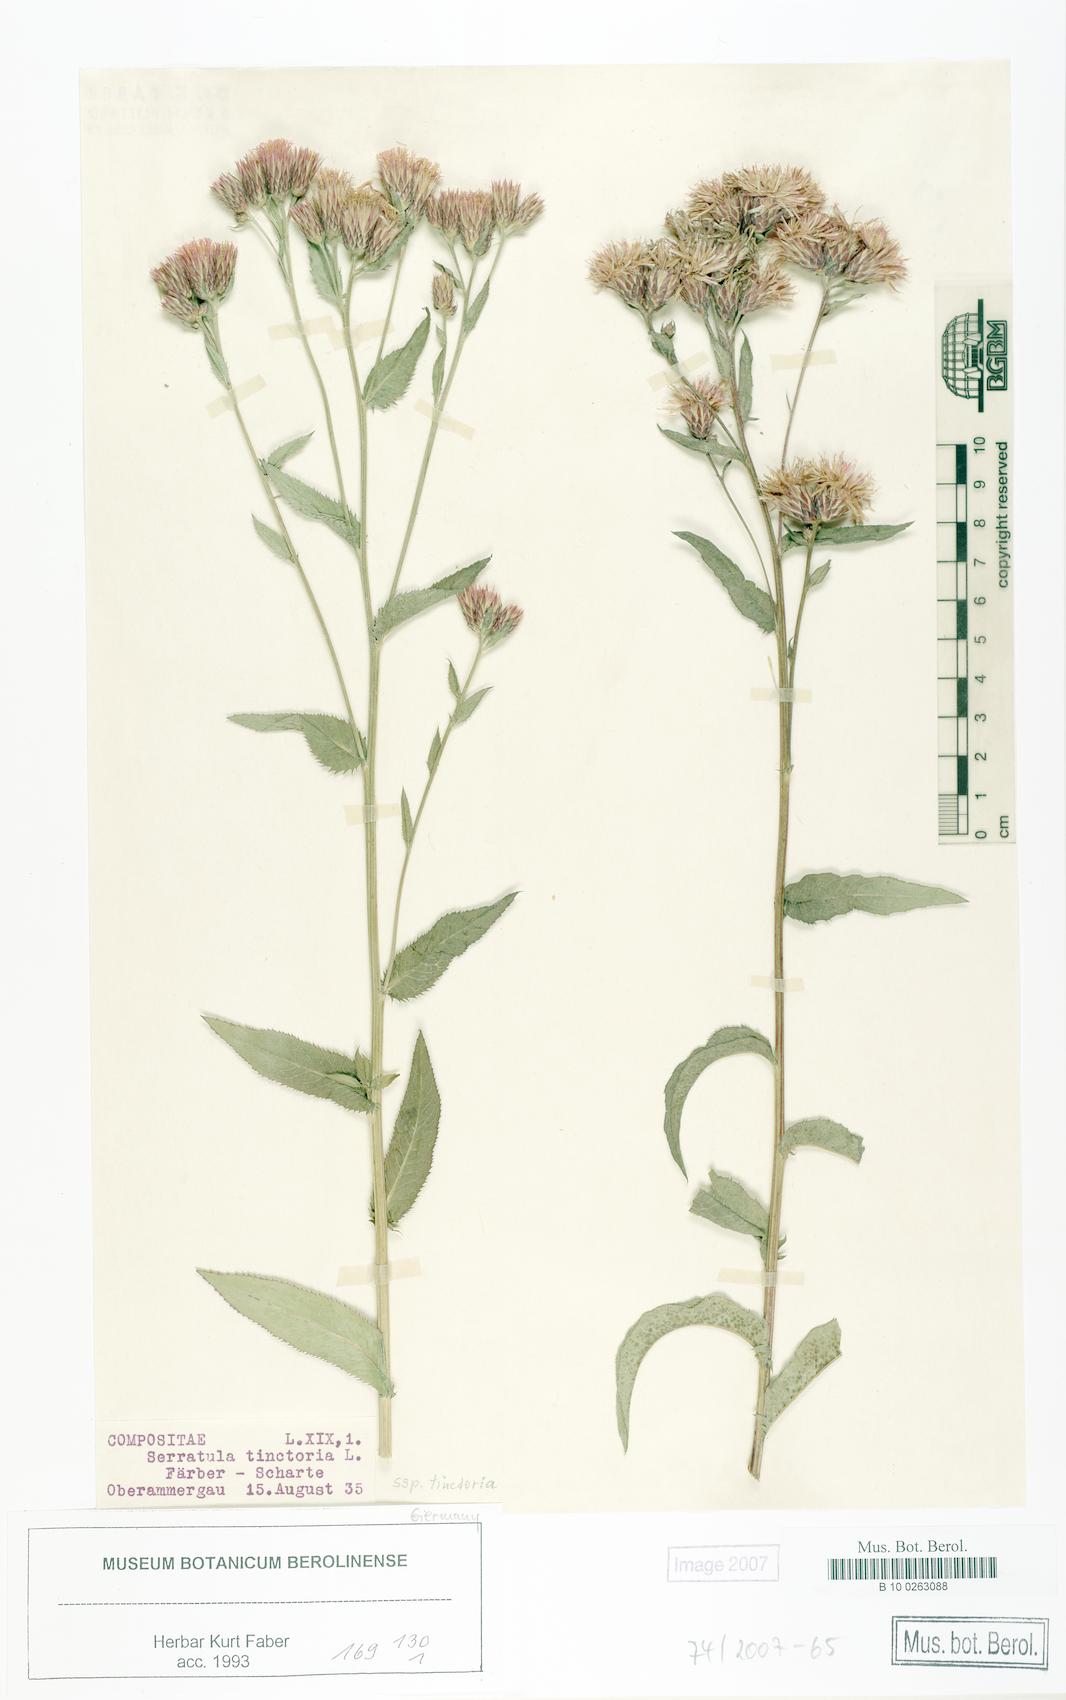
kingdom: Plantae
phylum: Tracheophyta
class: Magnoliopsida
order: Asterales
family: Asteraceae
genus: Serratula
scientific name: Serratula tinctoria
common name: Saw-wort
